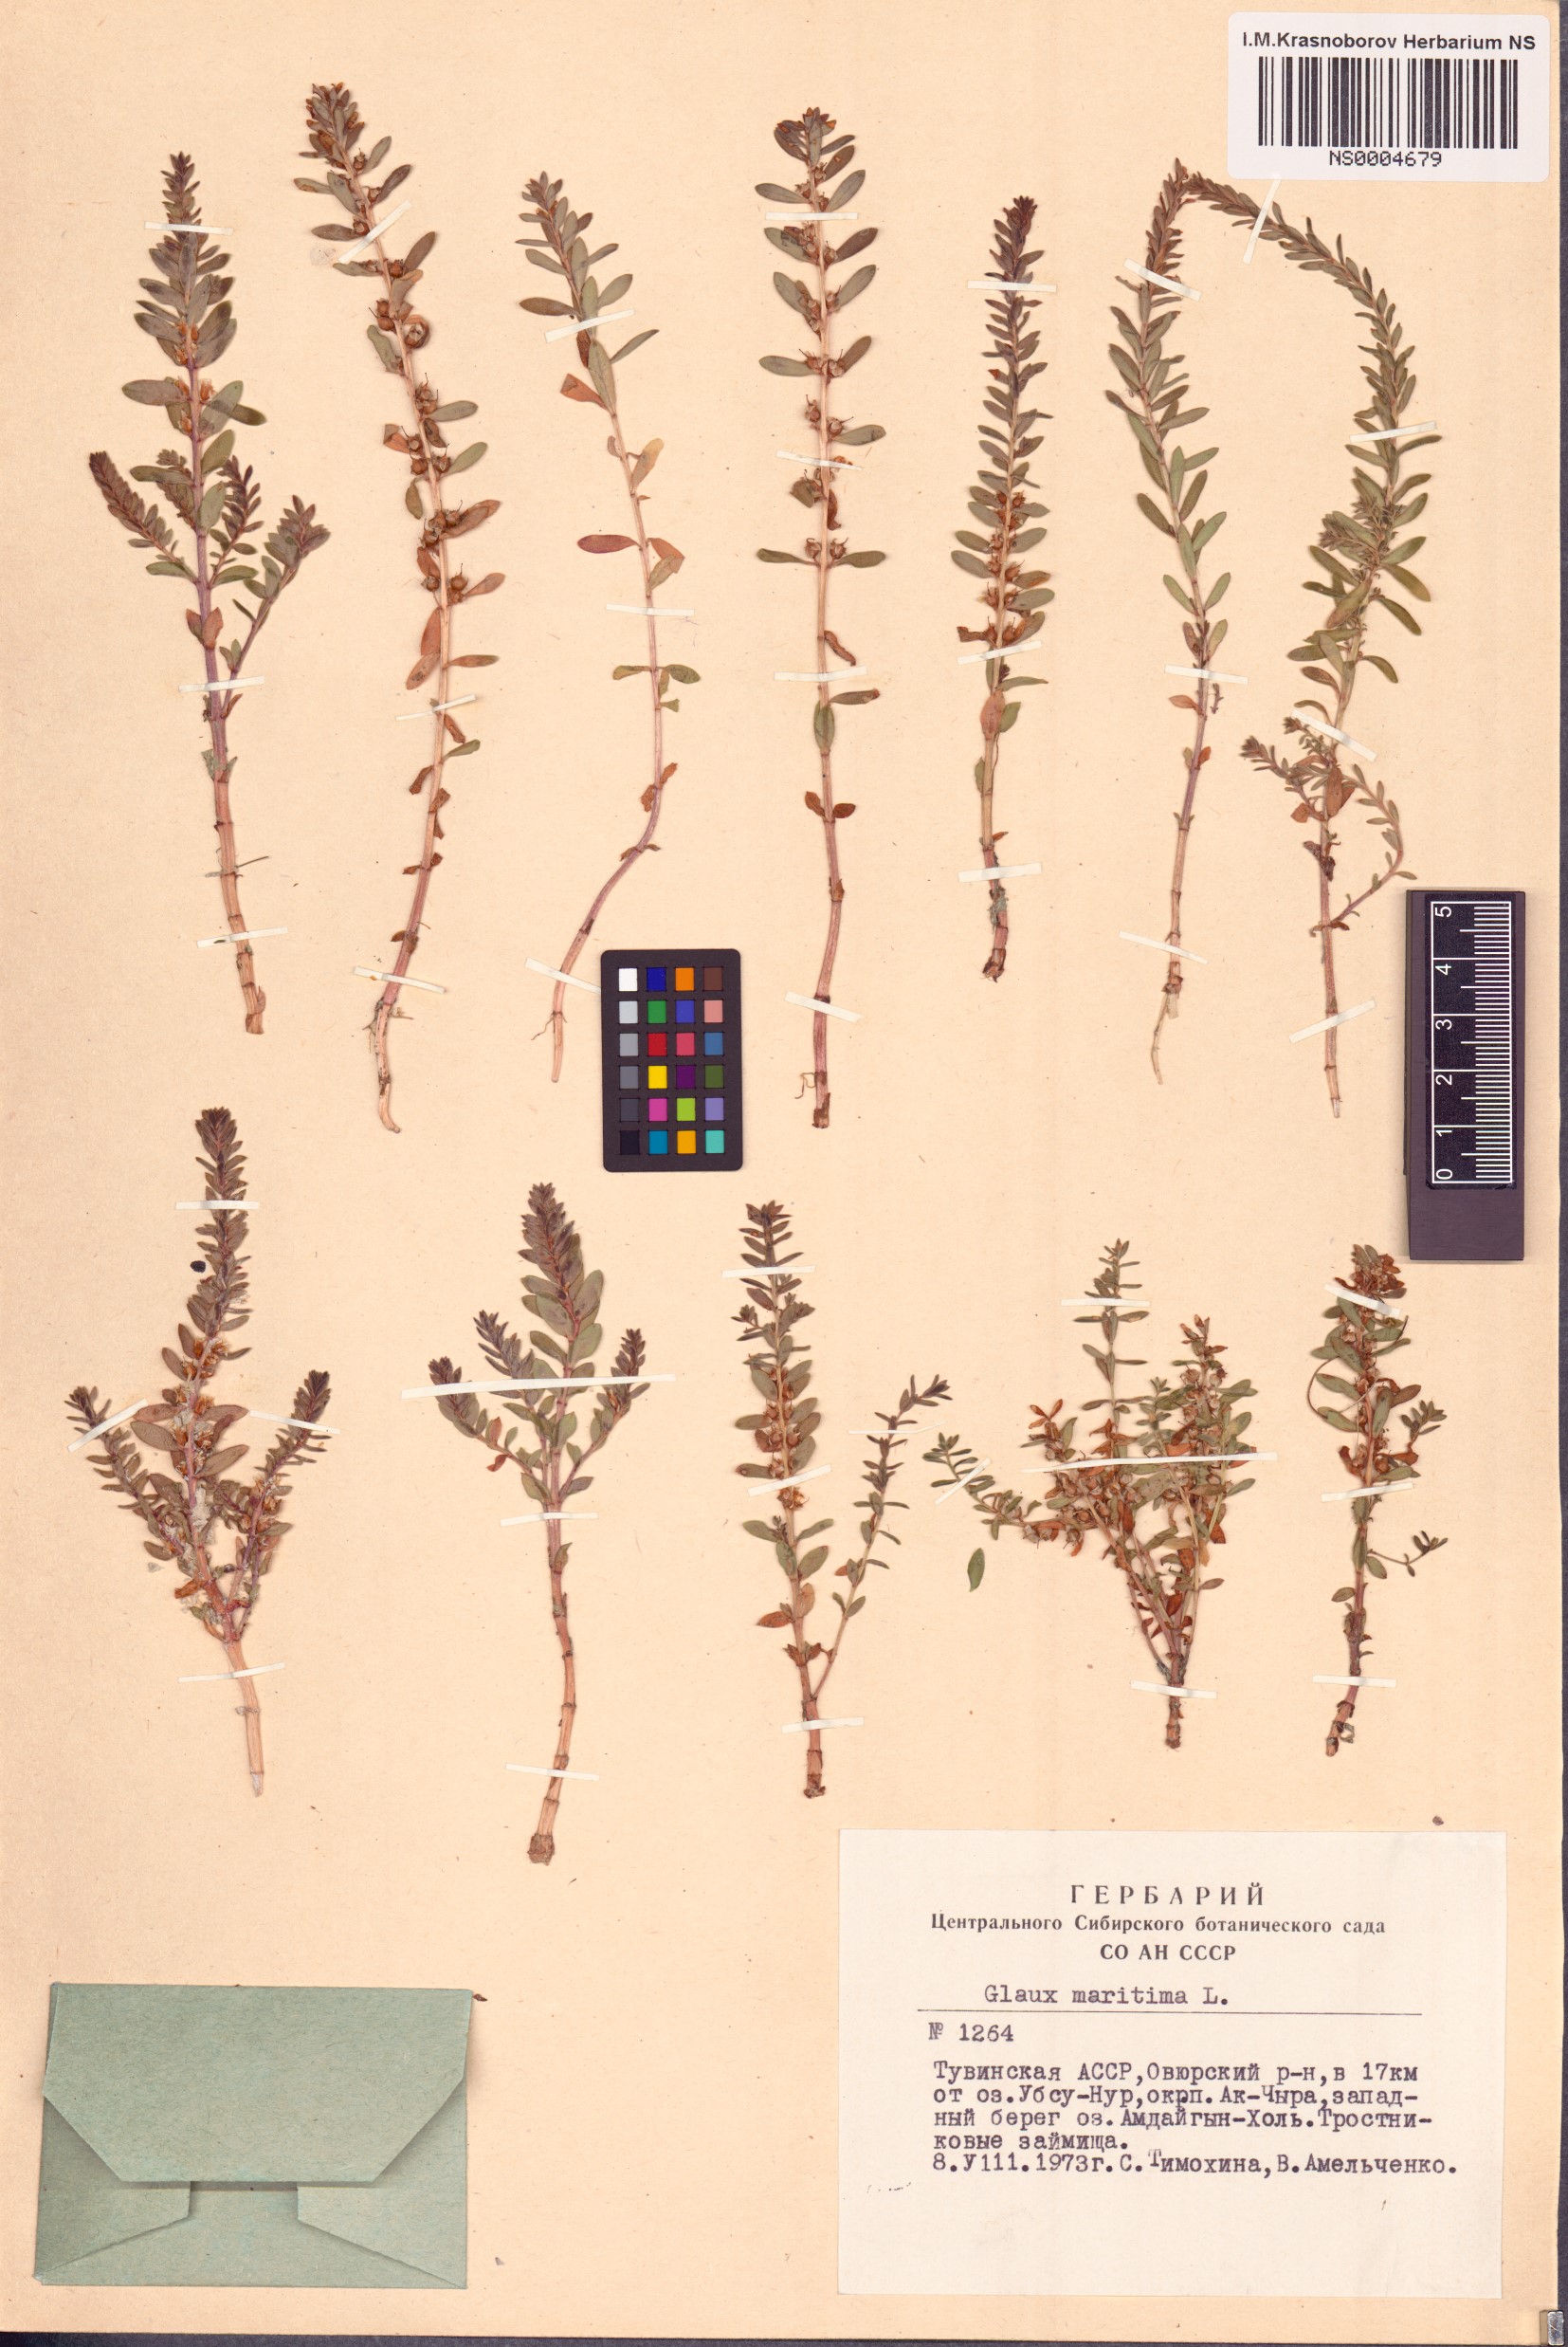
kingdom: Plantae
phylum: Tracheophyta
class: Magnoliopsida
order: Ericales
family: Primulaceae
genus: Lysimachia
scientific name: Lysimachia maritima
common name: Sea milkwort
